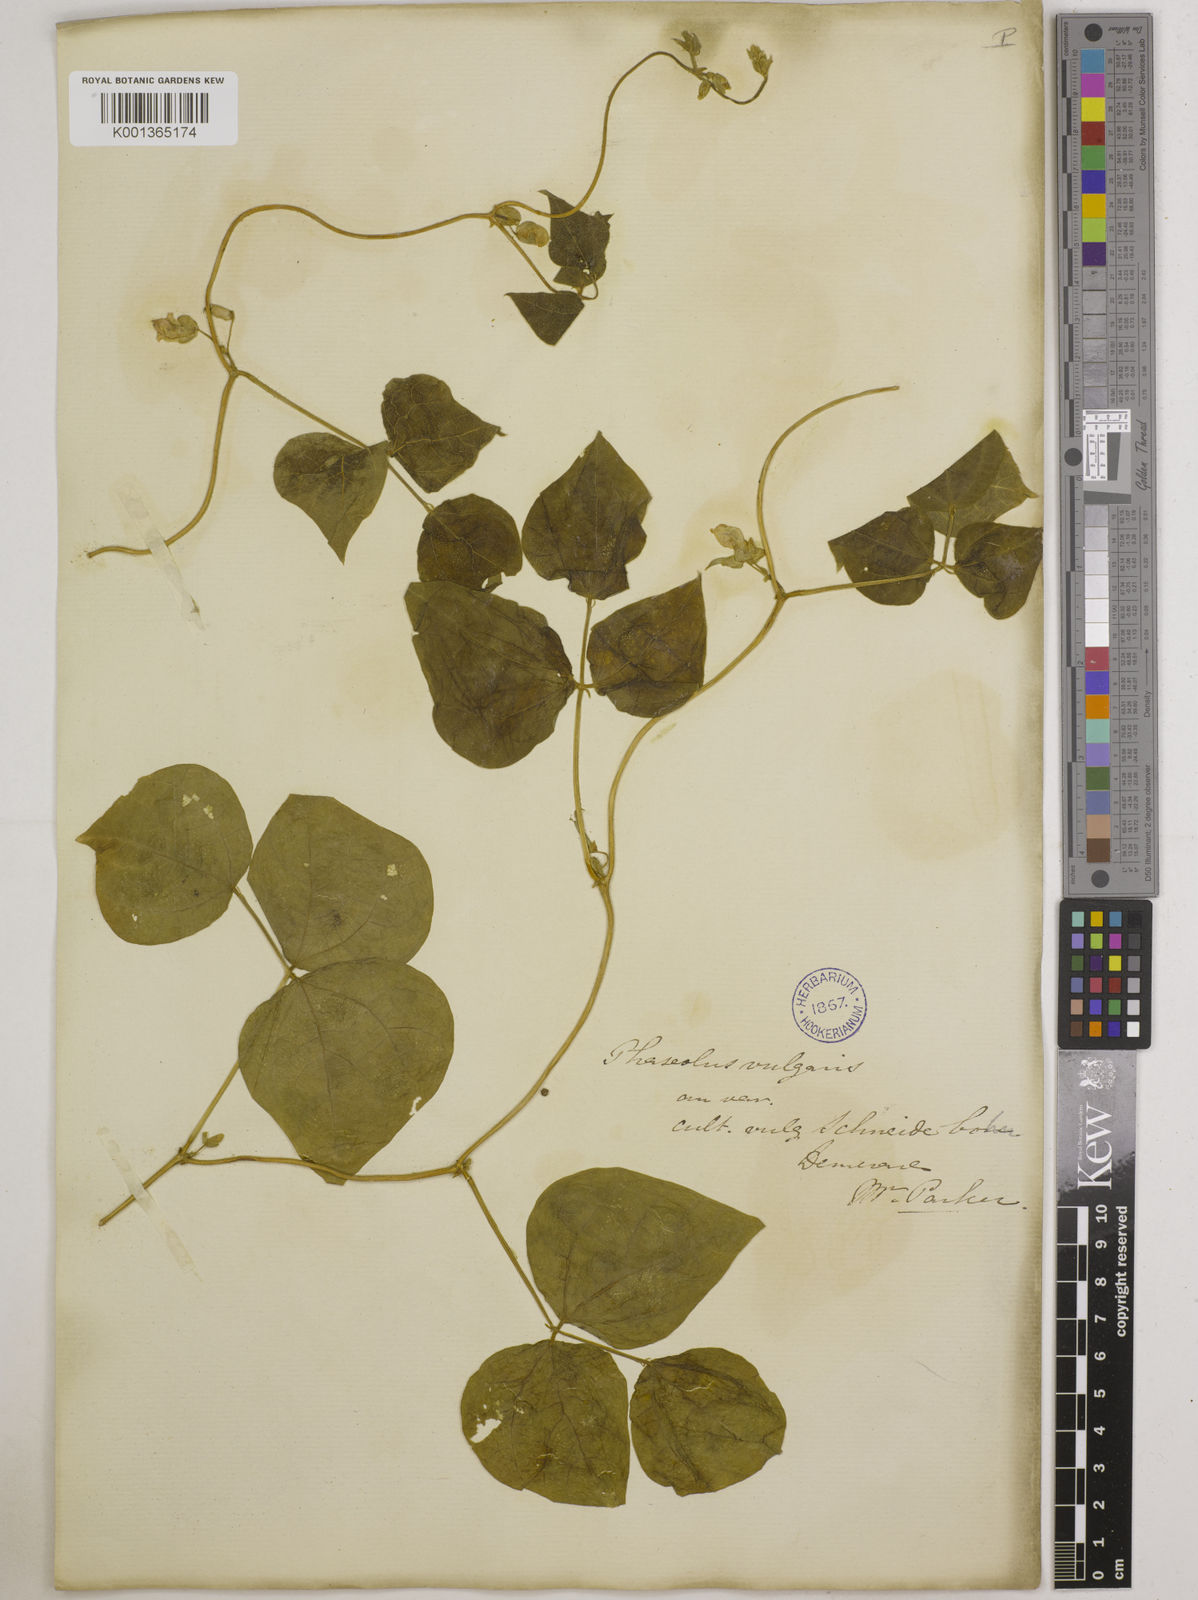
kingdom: Plantae
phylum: Tracheophyta
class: Magnoliopsida
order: Fabales
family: Fabaceae
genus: Phaseolus
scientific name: Phaseolus vulgaris
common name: Bean
